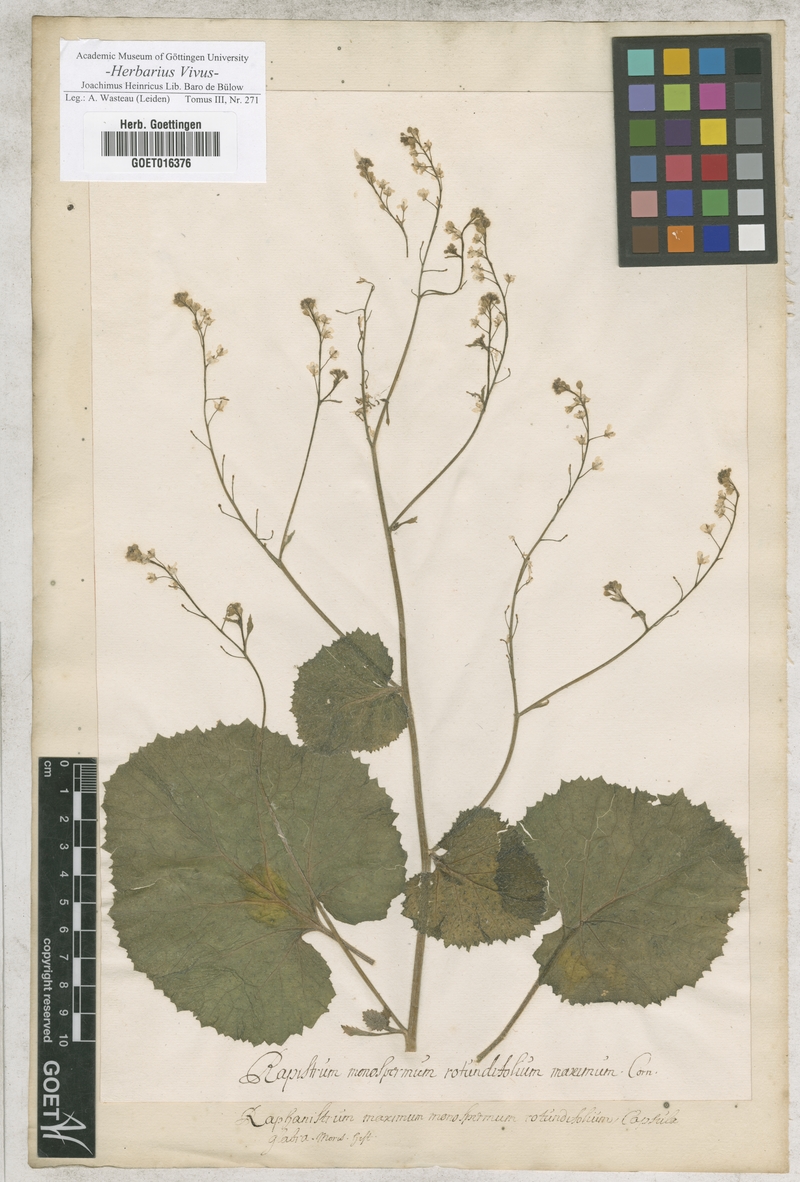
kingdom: Plantae
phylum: Tracheophyta
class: Magnoliopsida
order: Brassicales
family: Brassicaceae
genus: Crambe
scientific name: Crambe hispanica
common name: Abyssinian mustard
